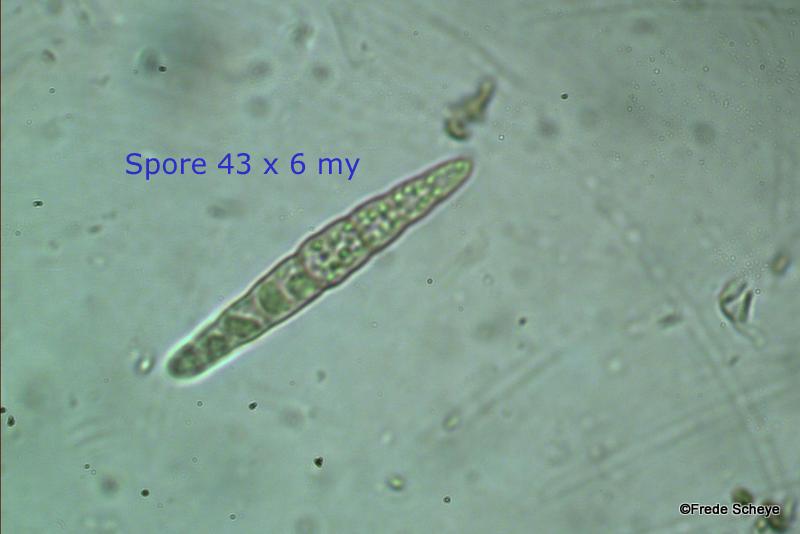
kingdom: Fungi
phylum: Ascomycota
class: Dothideomycetes
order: Pleosporales
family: Leptosphaeriaceae
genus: Leptosphaeria
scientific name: Leptosphaeria acuta
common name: spids kulkegle
